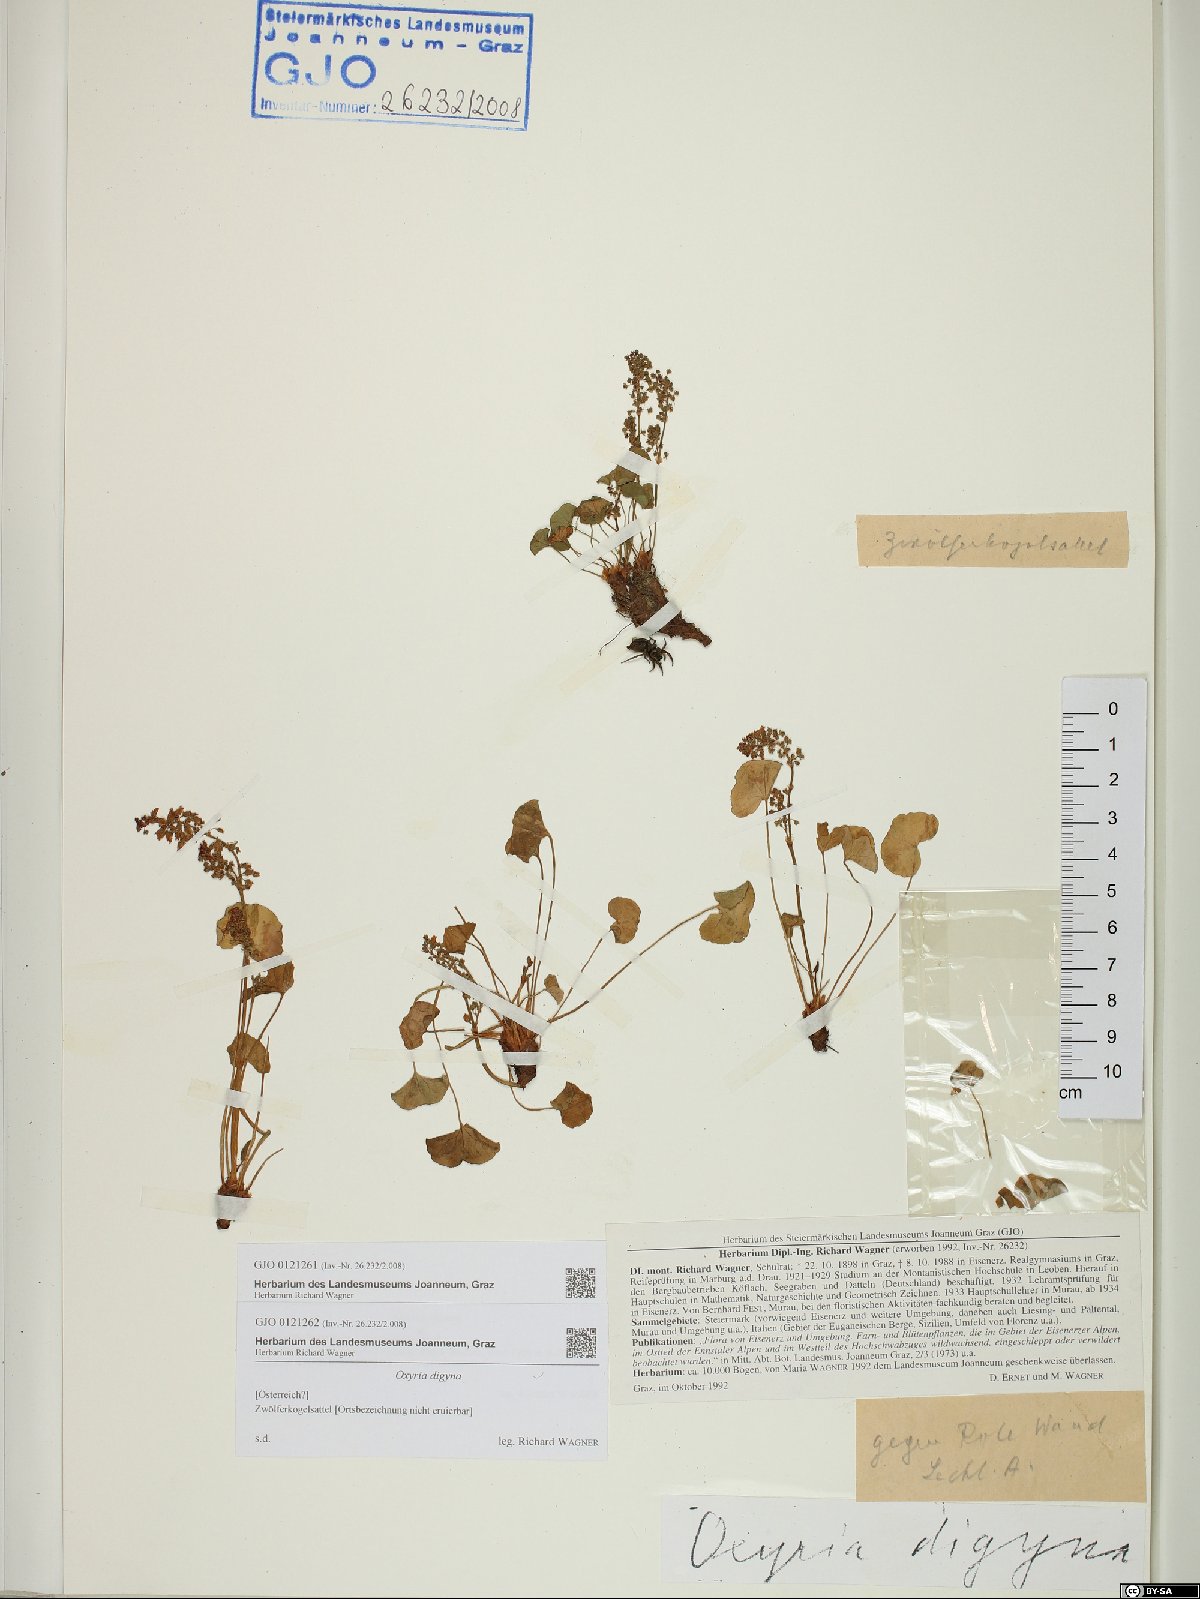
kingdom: Plantae
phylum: Tracheophyta
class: Magnoliopsida
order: Caryophyllales
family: Polygonaceae
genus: Oxyria
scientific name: Oxyria digyna
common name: Alpine mountain-sorrel
